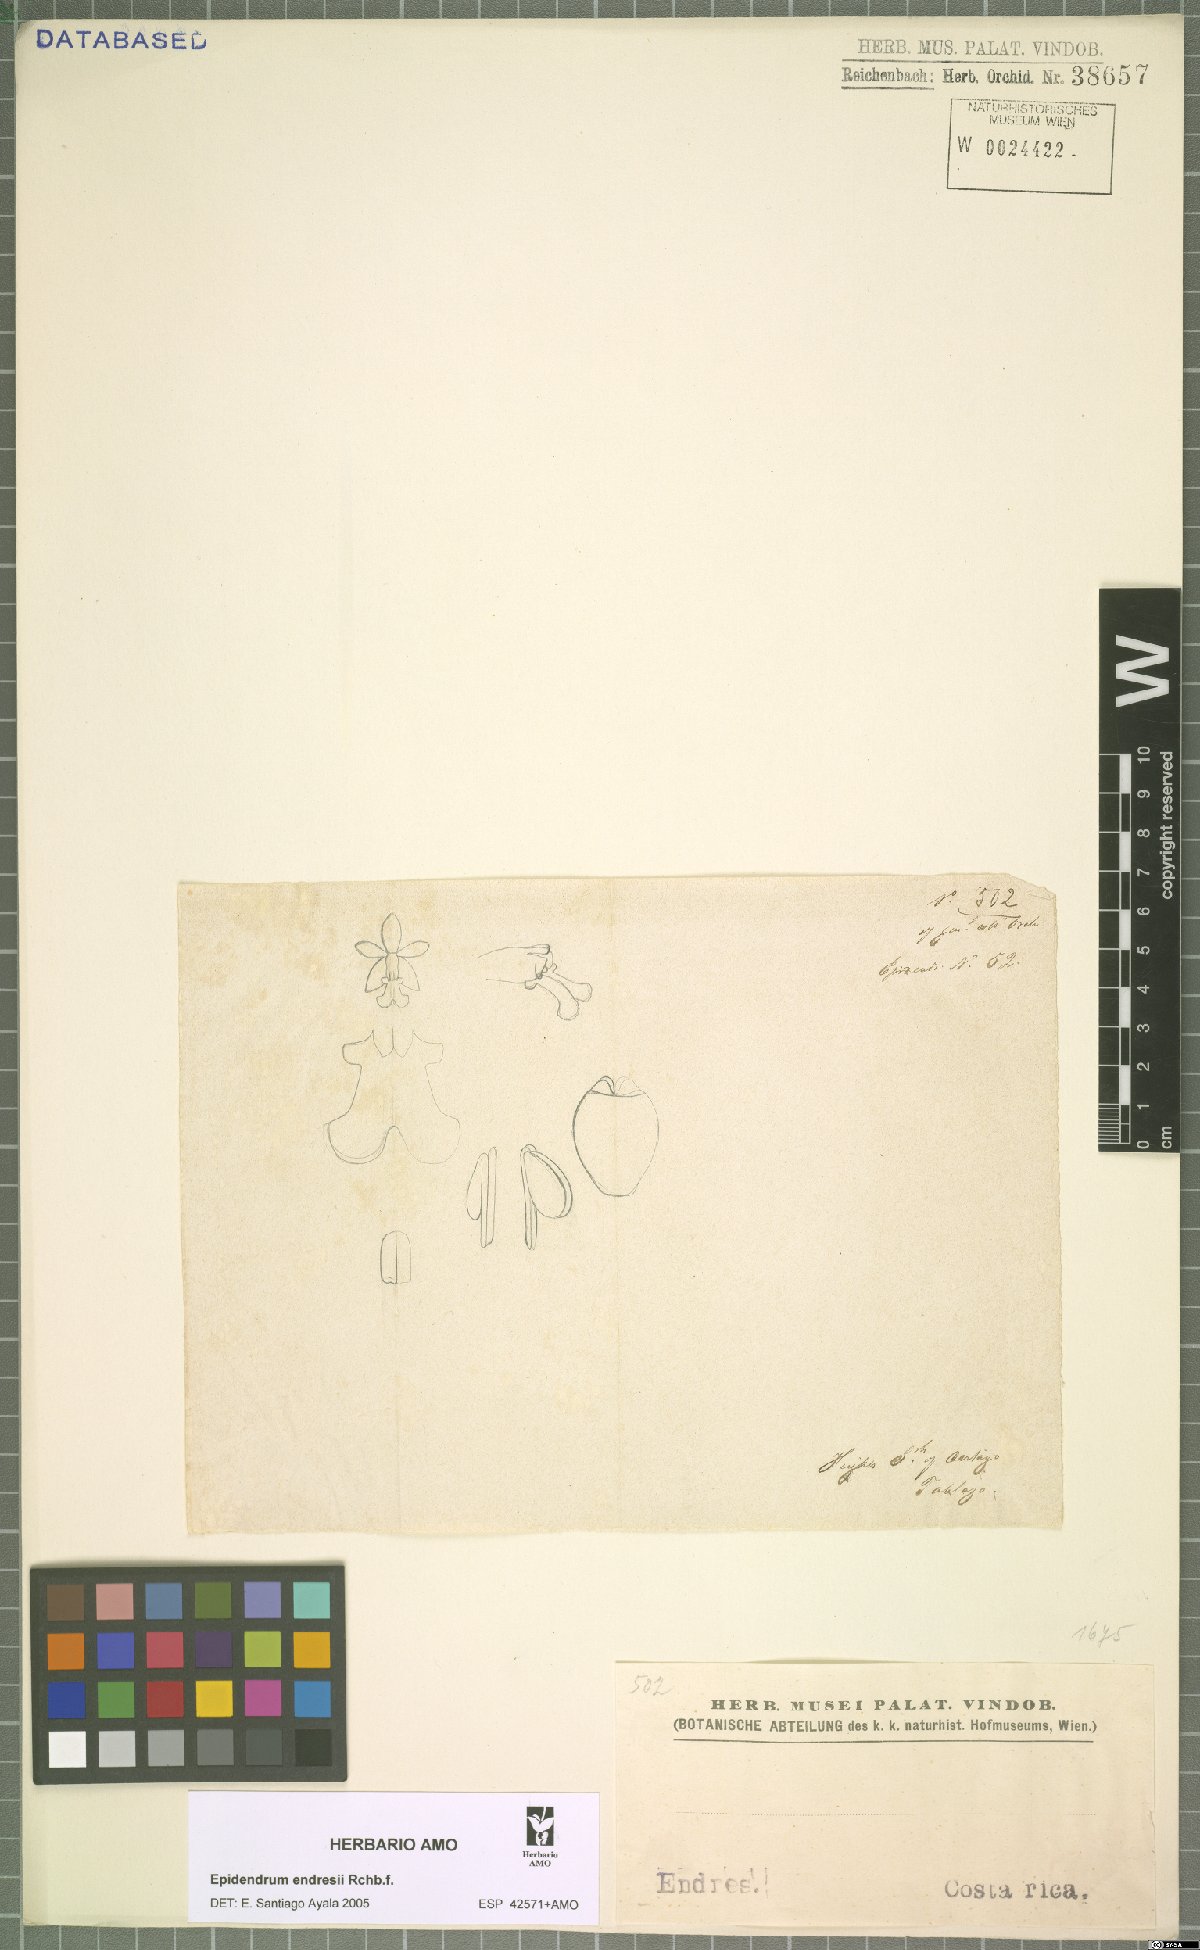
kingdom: Plantae
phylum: Tracheophyta
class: Liliopsida
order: Asparagales
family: Orchidaceae
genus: Epidendrum
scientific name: Epidendrum endresii
